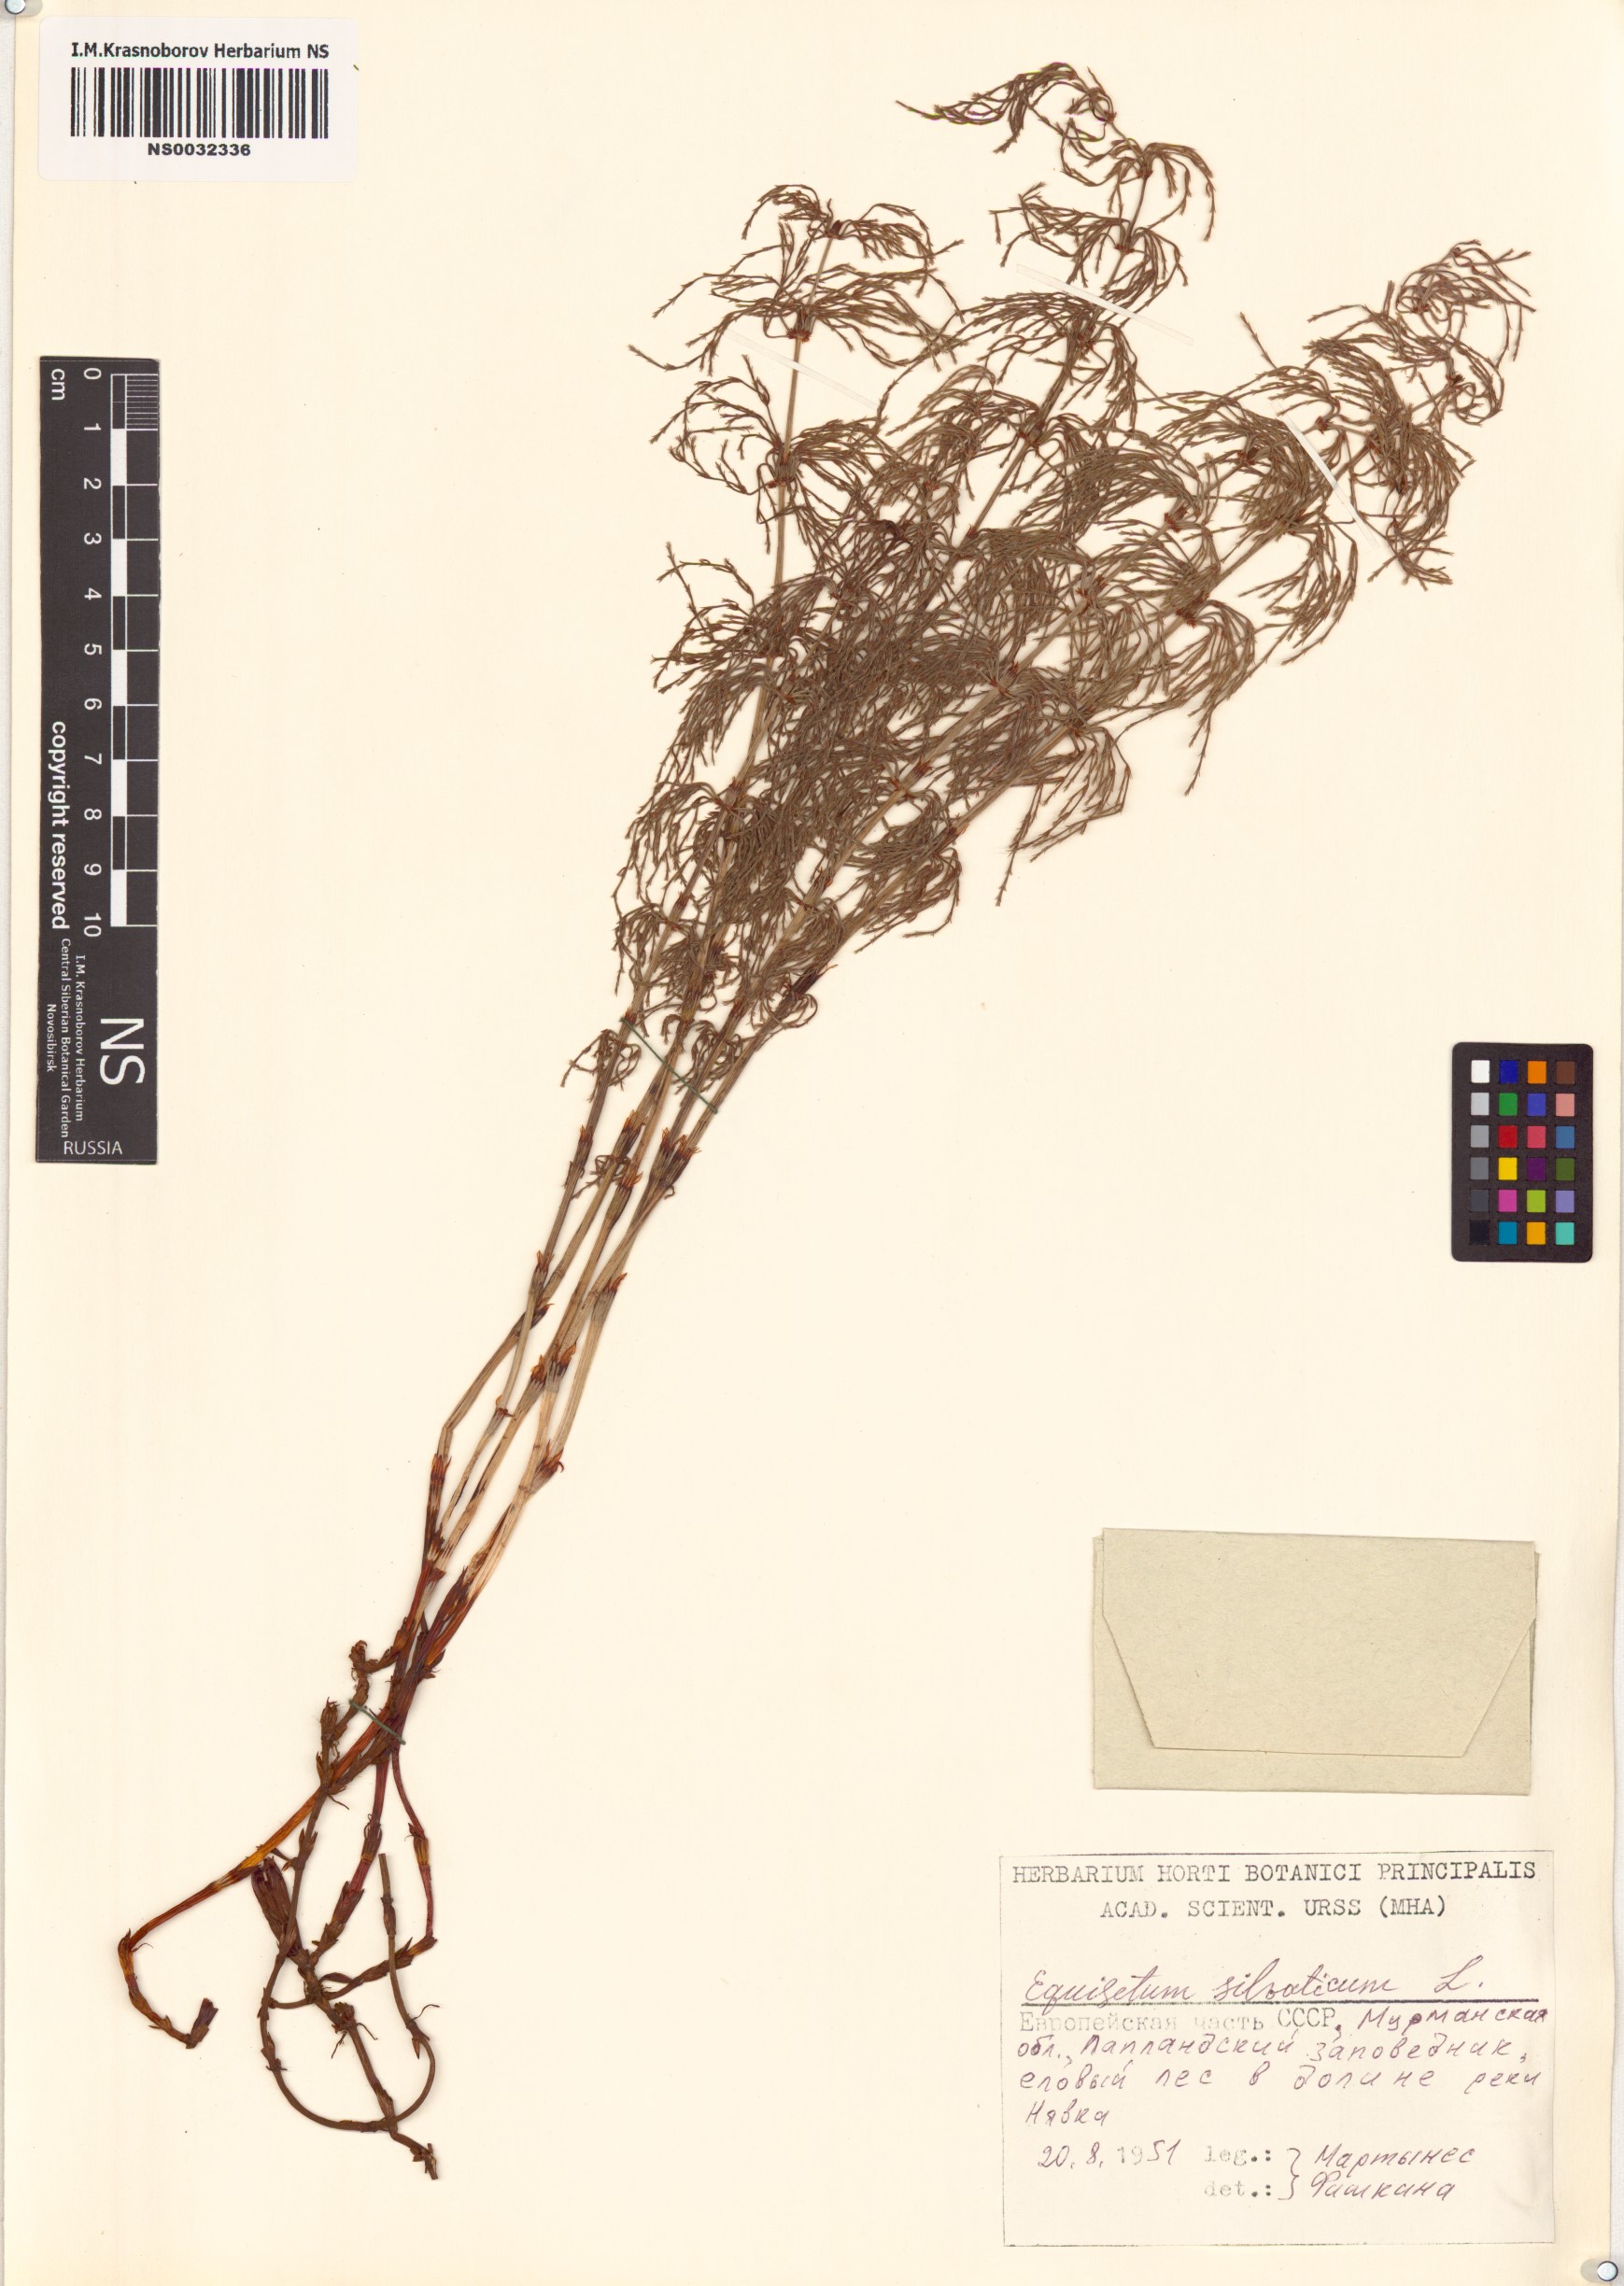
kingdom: Plantae
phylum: Tracheophyta
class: Polypodiopsida
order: Equisetales
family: Equisetaceae
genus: Equisetum
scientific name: Equisetum sylvaticum
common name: Wood horsetail
